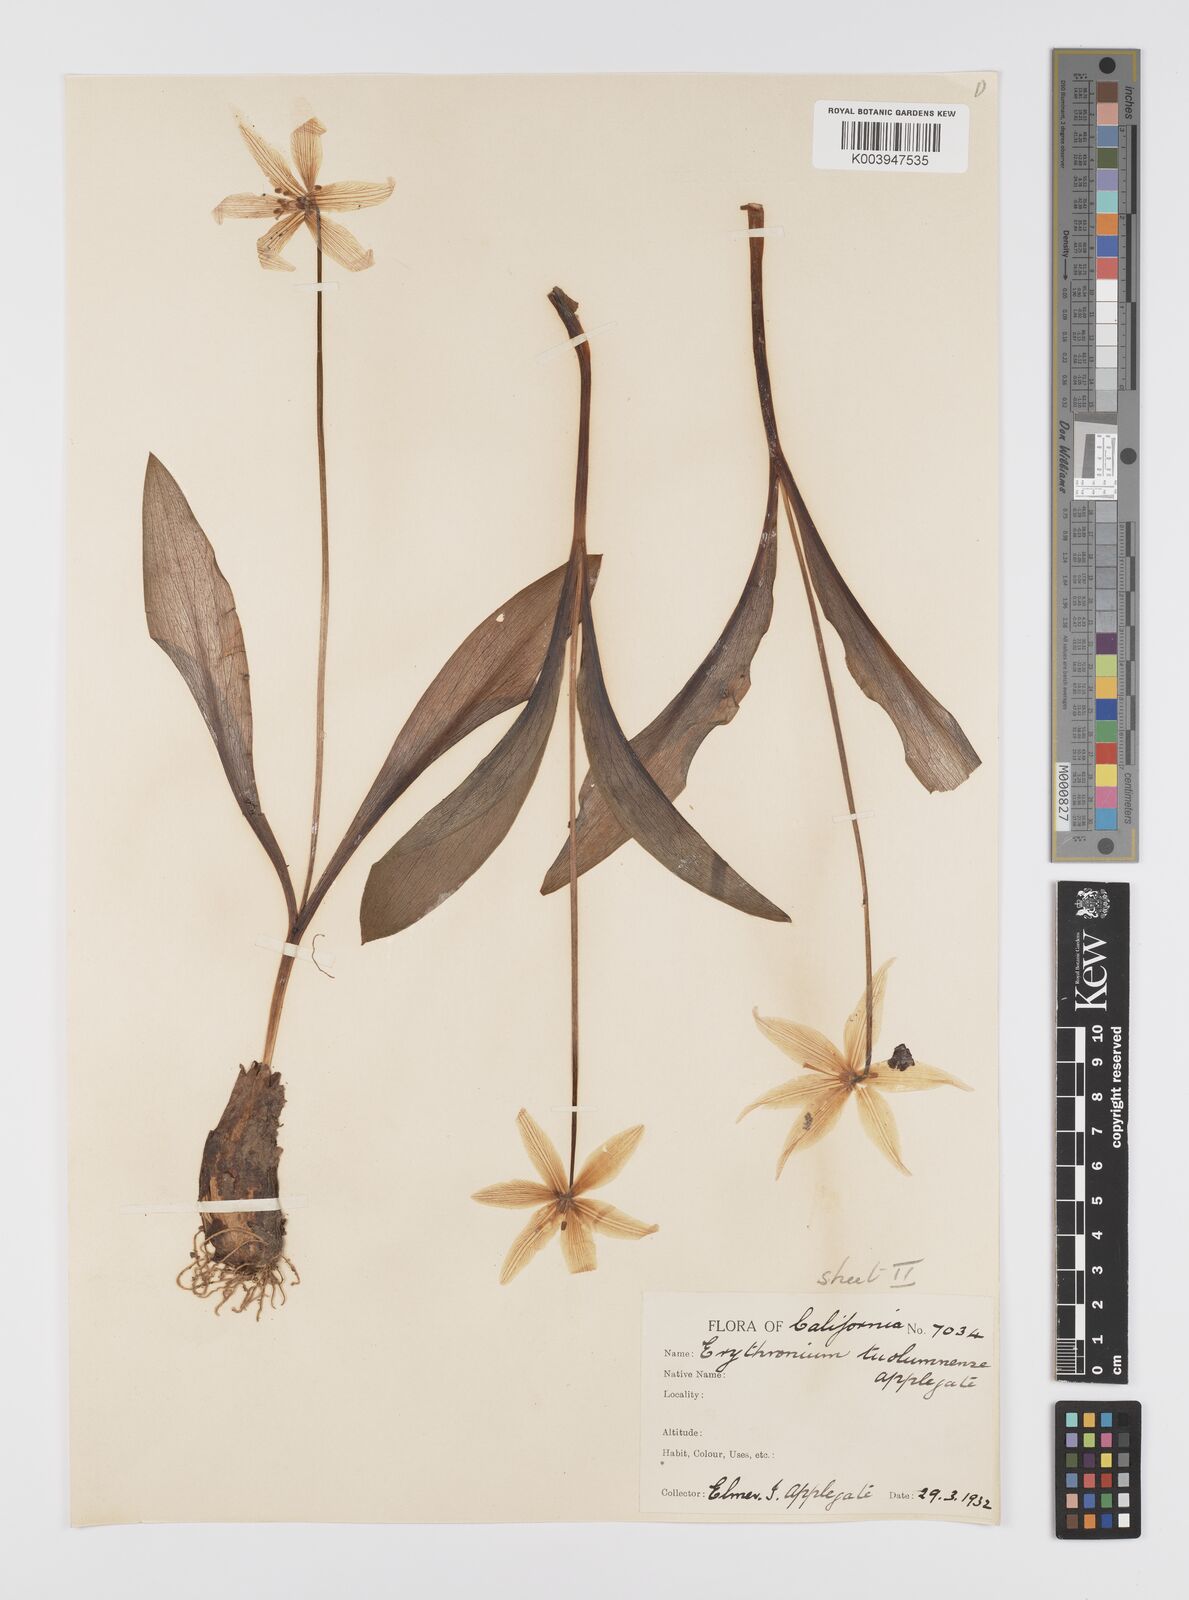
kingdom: Plantae
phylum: Tracheophyta
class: Liliopsida
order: Liliales
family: Liliaceae
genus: Erythronium
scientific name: Erythronium tuolumnense
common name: Tuolumne fawn-lily
